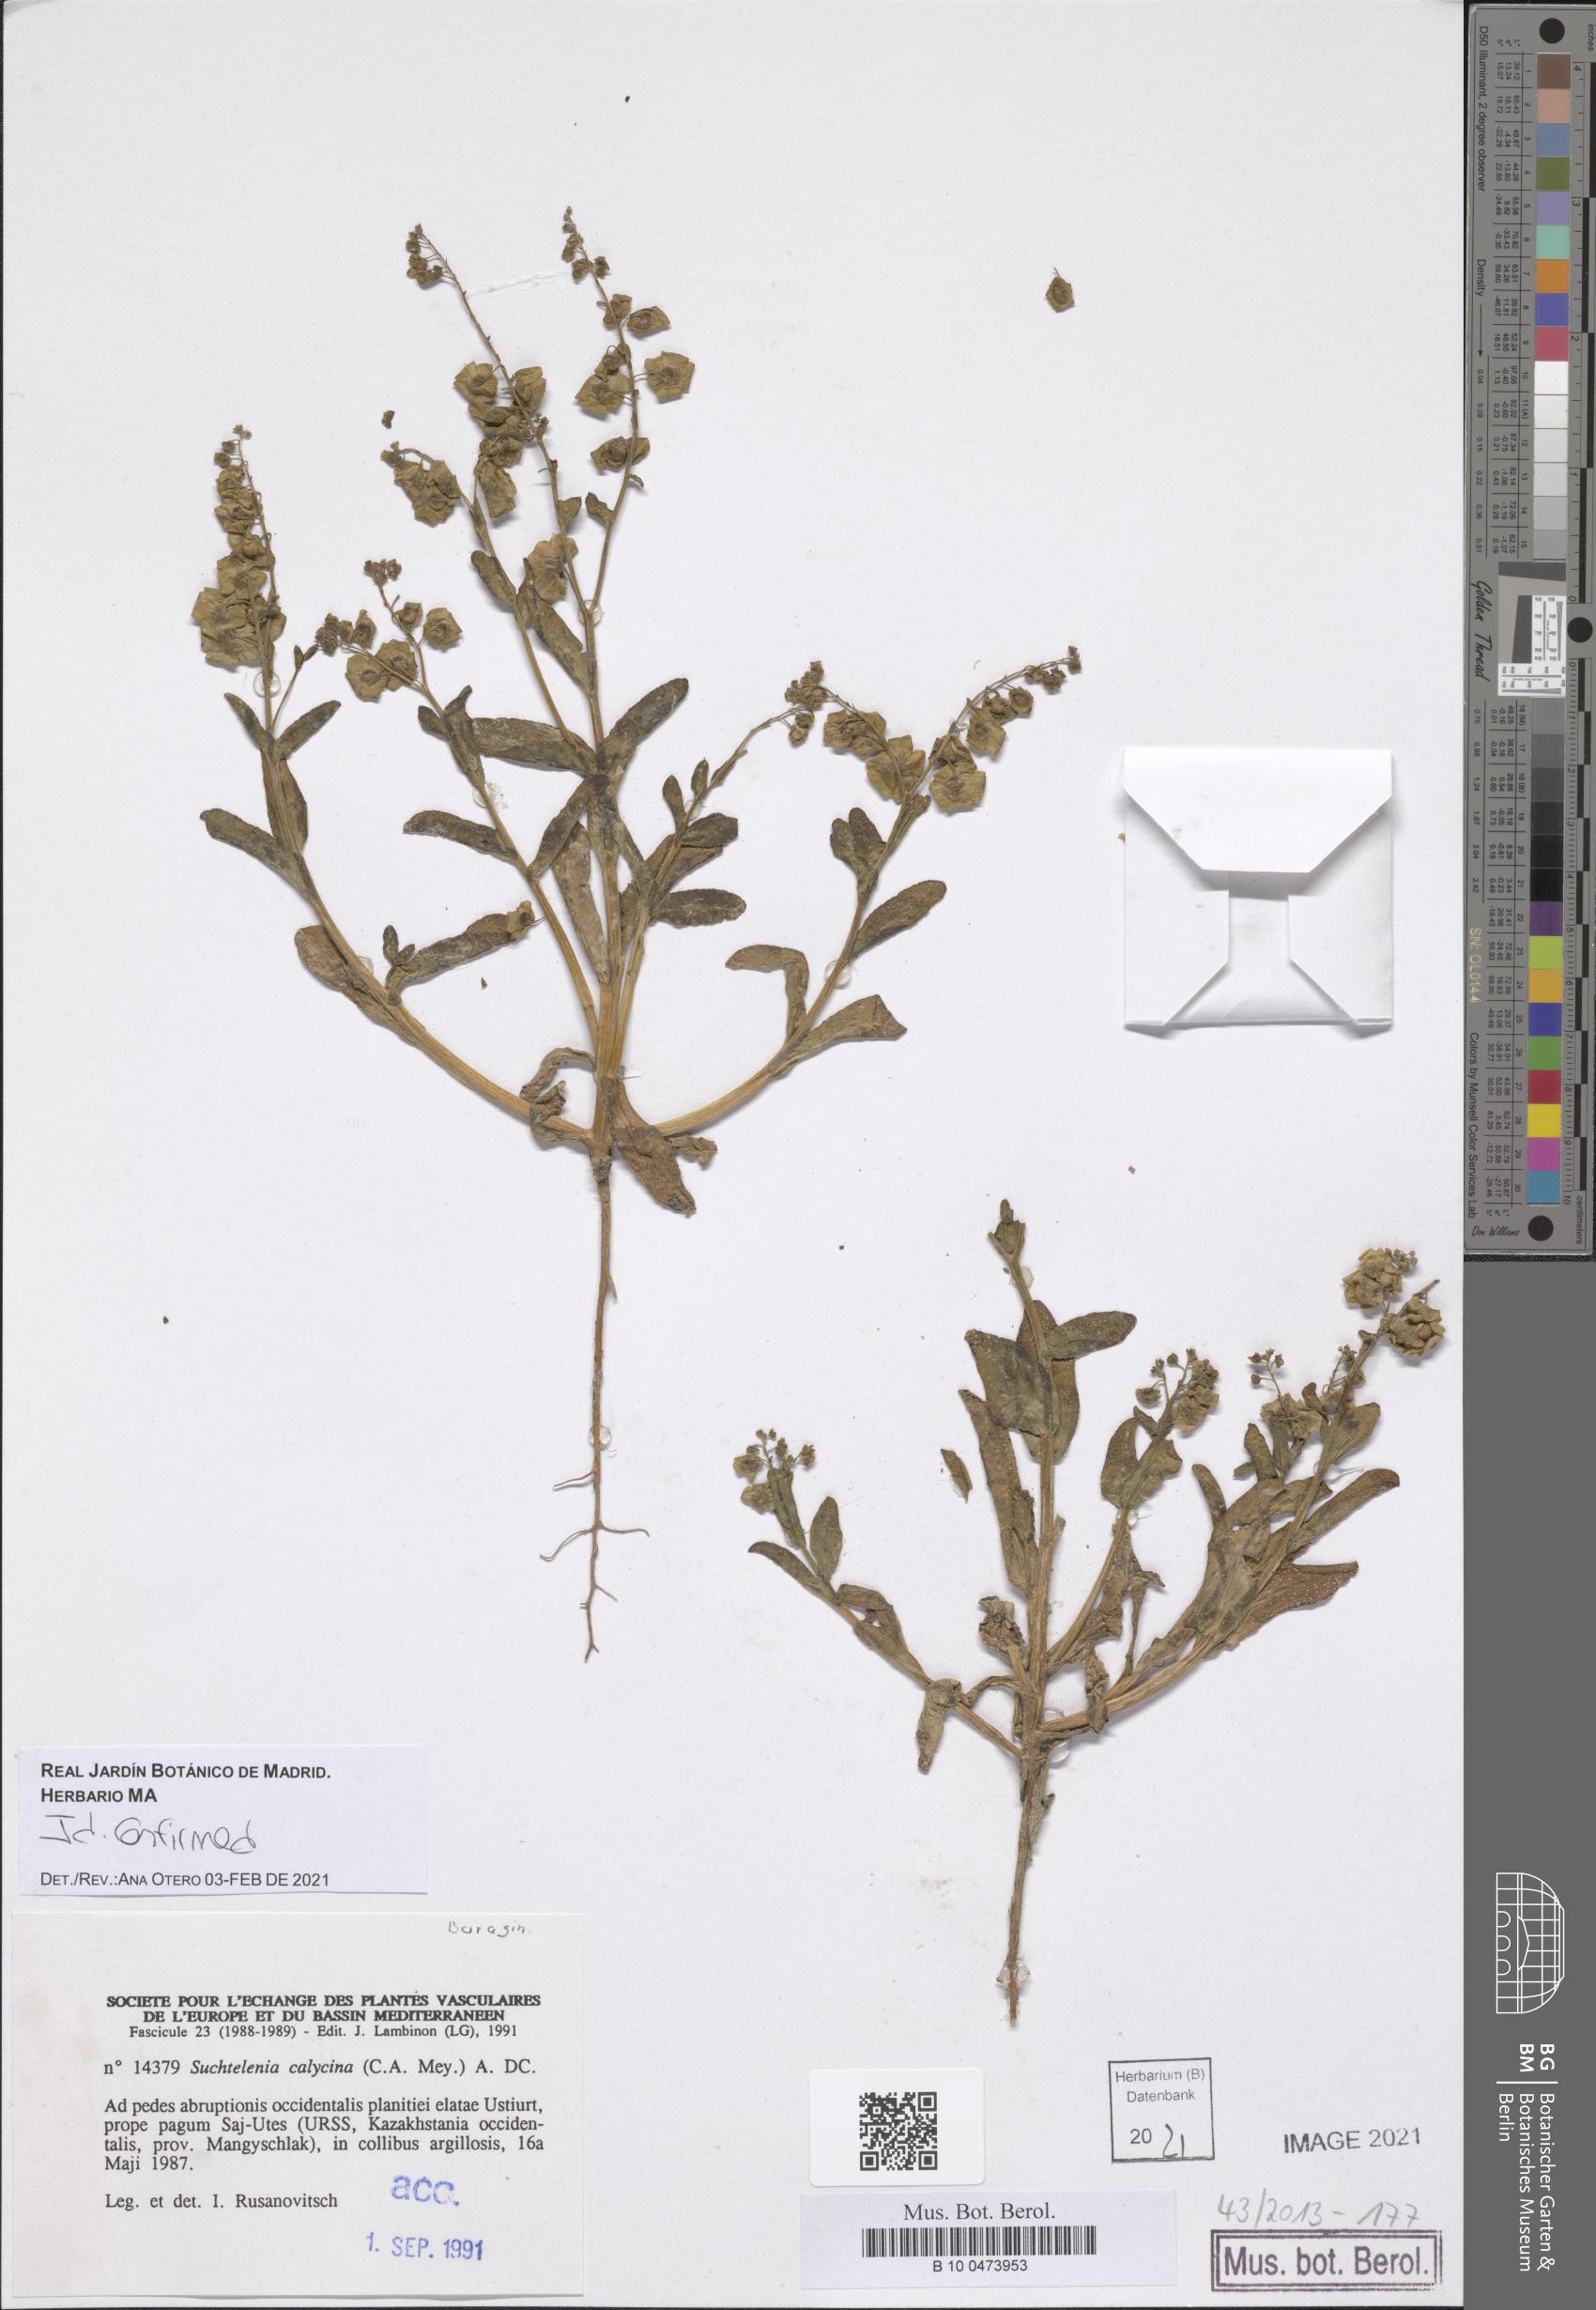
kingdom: Plantae
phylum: Tracheophyta
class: Magnoliopsida
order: Boraginales
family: Boraginaceae
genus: Suchtelenia
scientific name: Suchtelenia calycina
